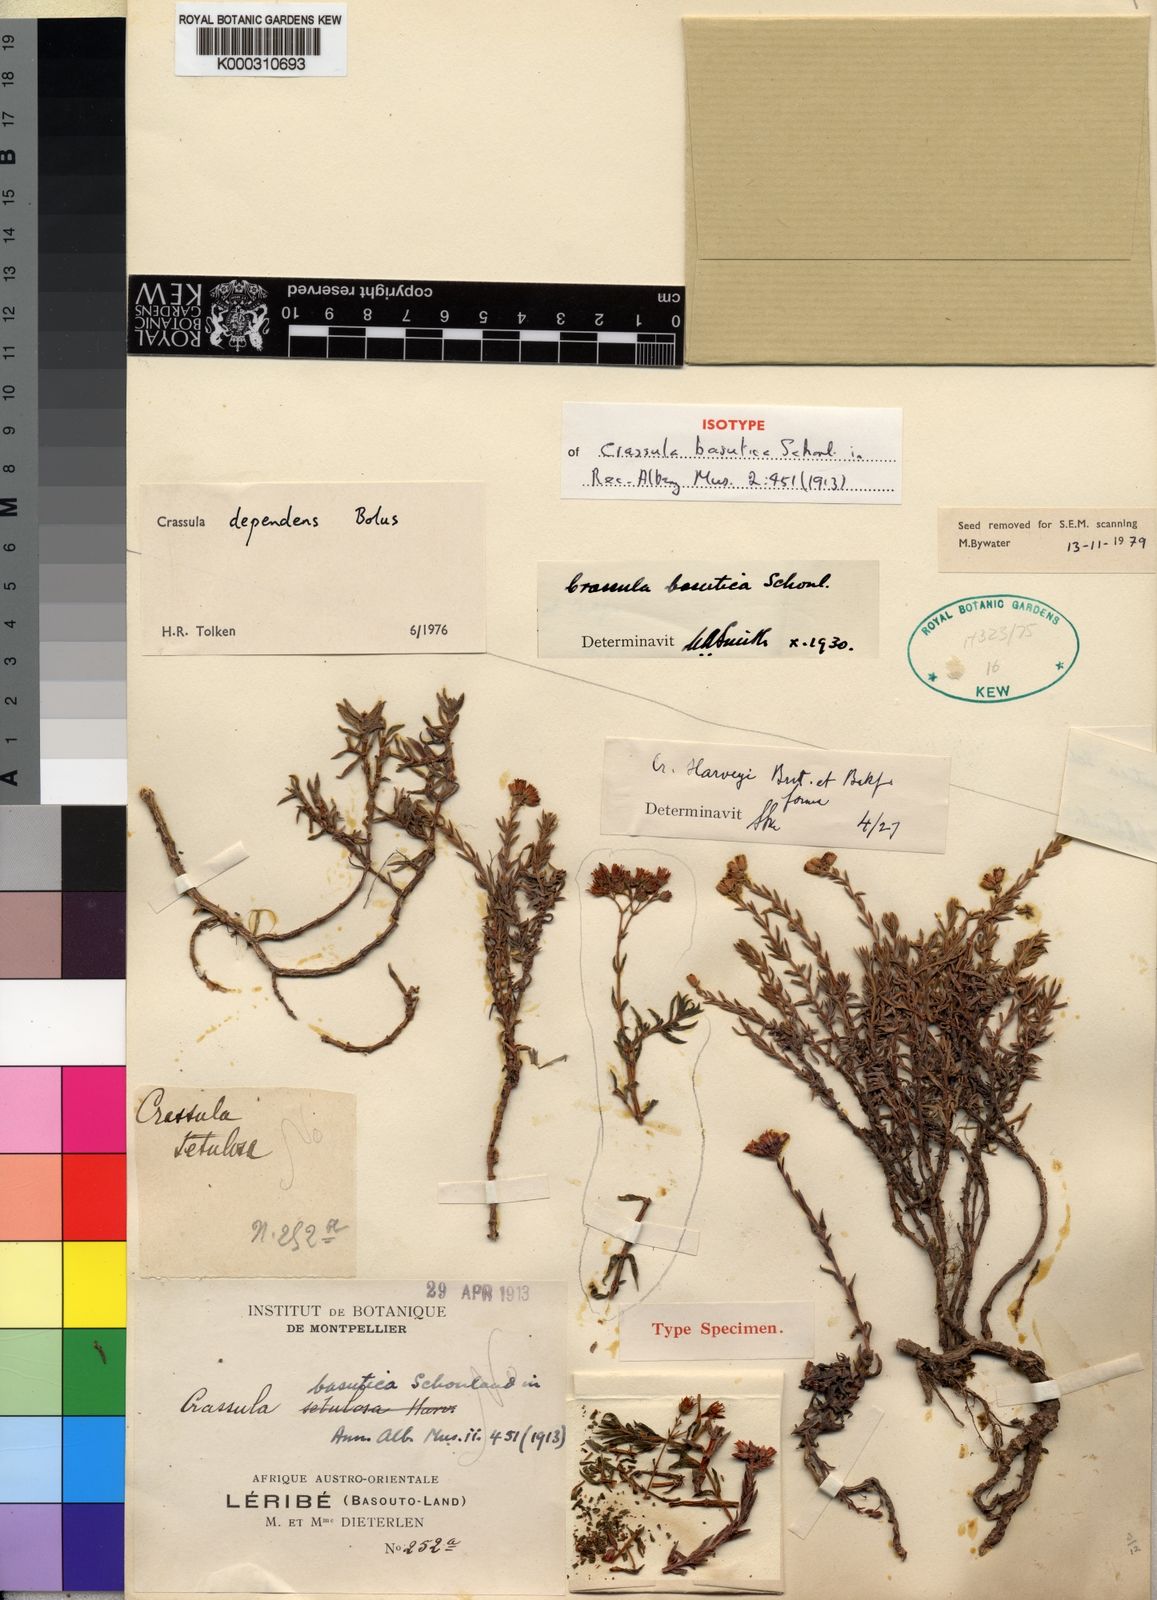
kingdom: Plantae
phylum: Tracheophyta
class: Magnoliopsida
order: Saxifragales
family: Crassulaceae
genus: Crassula
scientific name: Crassula dependens
